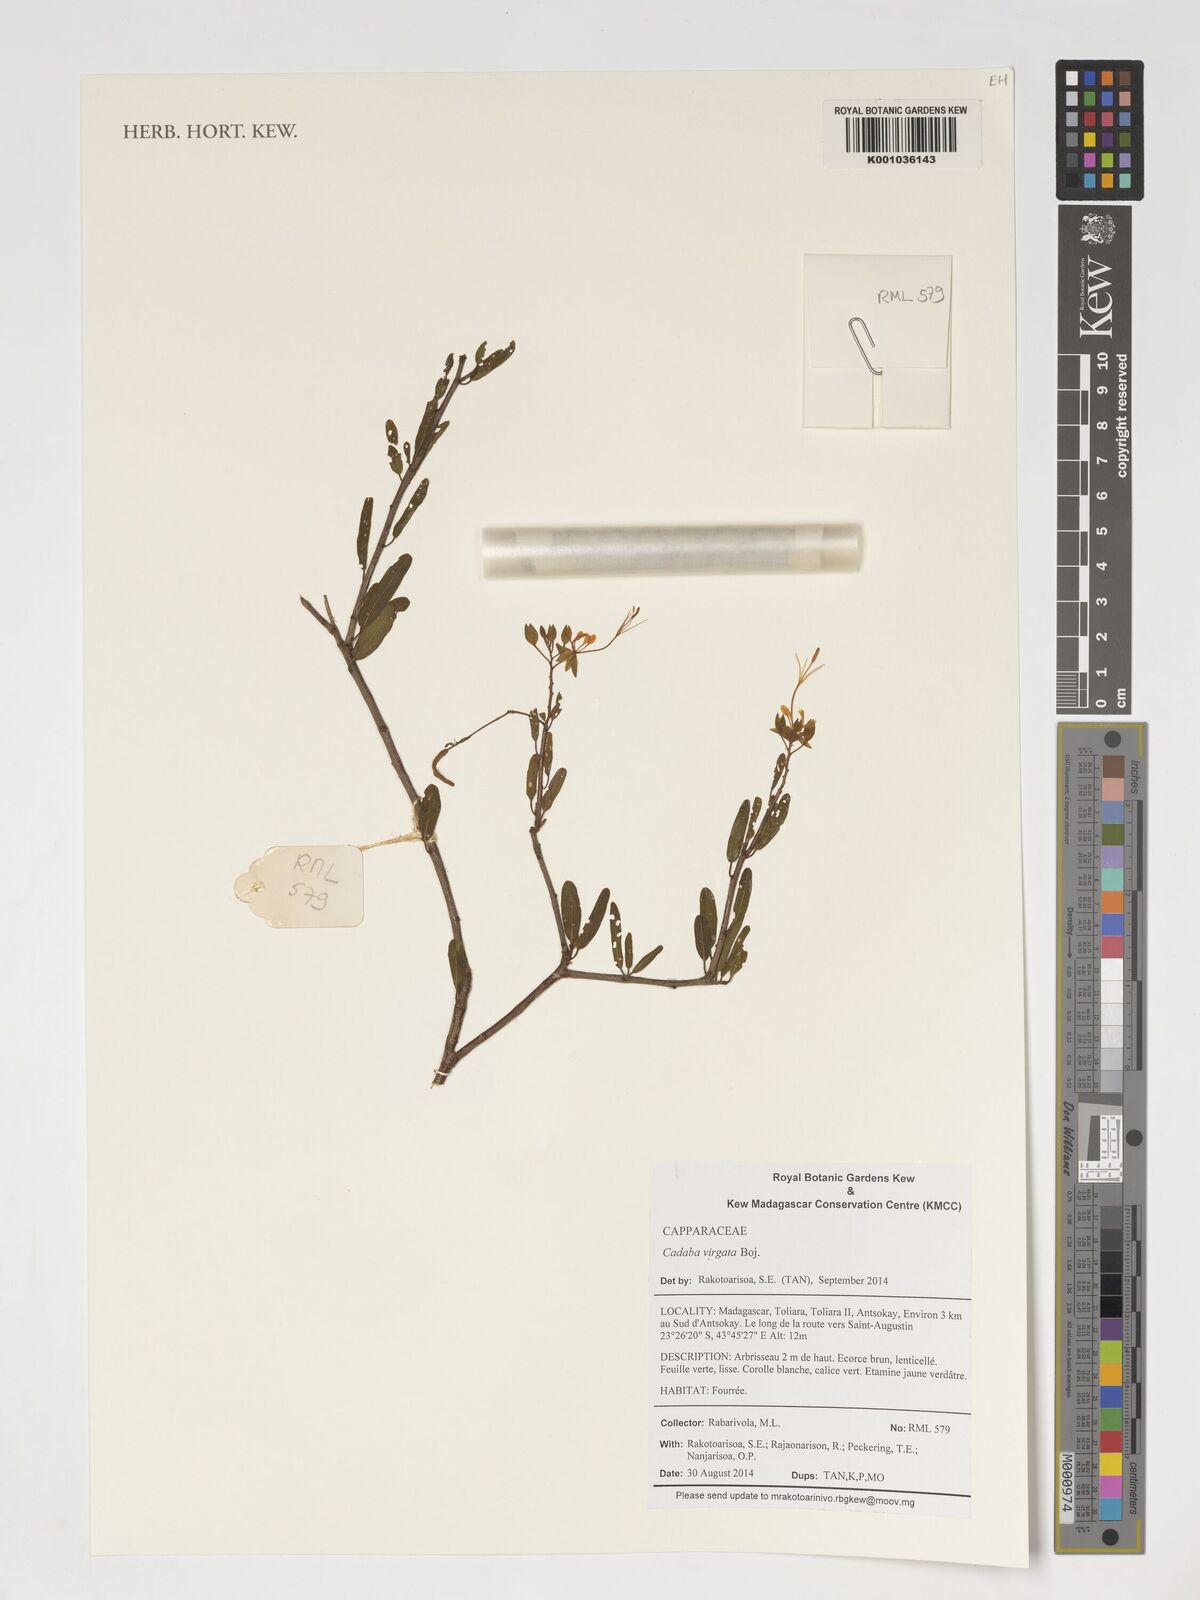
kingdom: Plantae
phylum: Tracheophyta
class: Magnoliopsida
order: Brassicales
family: Capparaceae
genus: Cadaba
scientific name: Cadaba virgata
